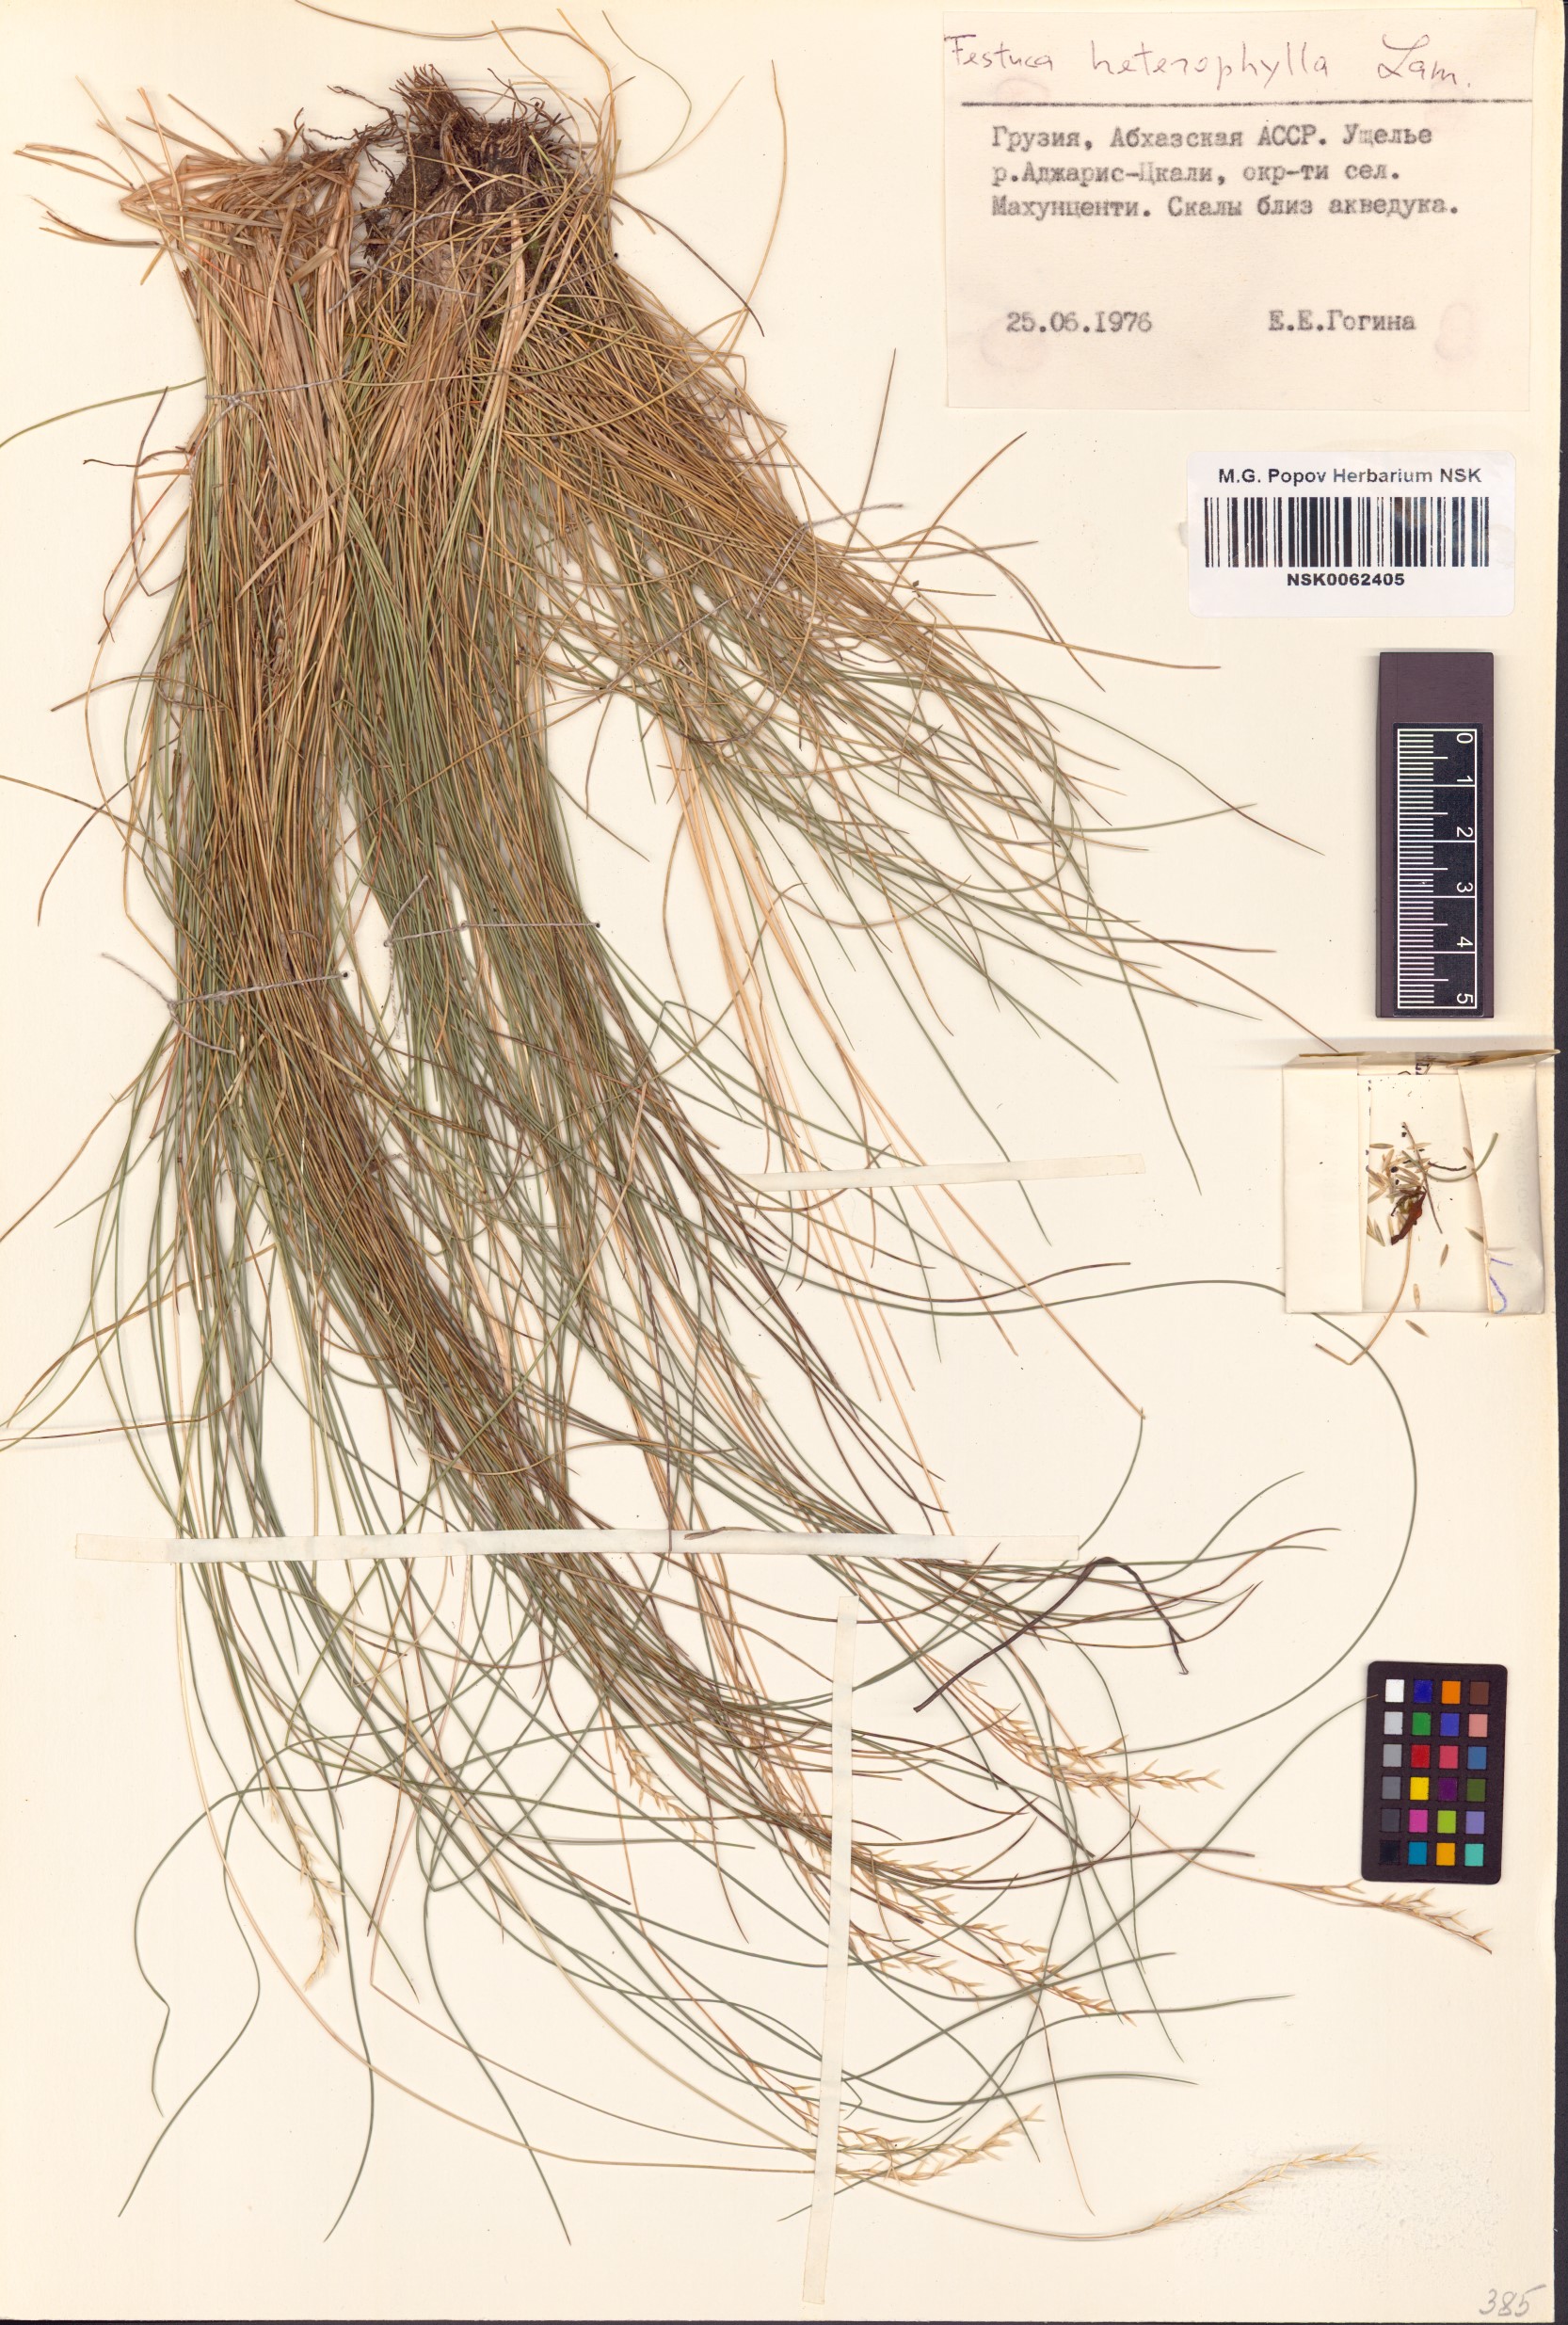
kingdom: Plantae
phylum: Tracheophyta
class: Liliopsida
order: Poales
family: Poaceae
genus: Festuca
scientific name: Festuca heterophylla
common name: Various-leaved fescue
